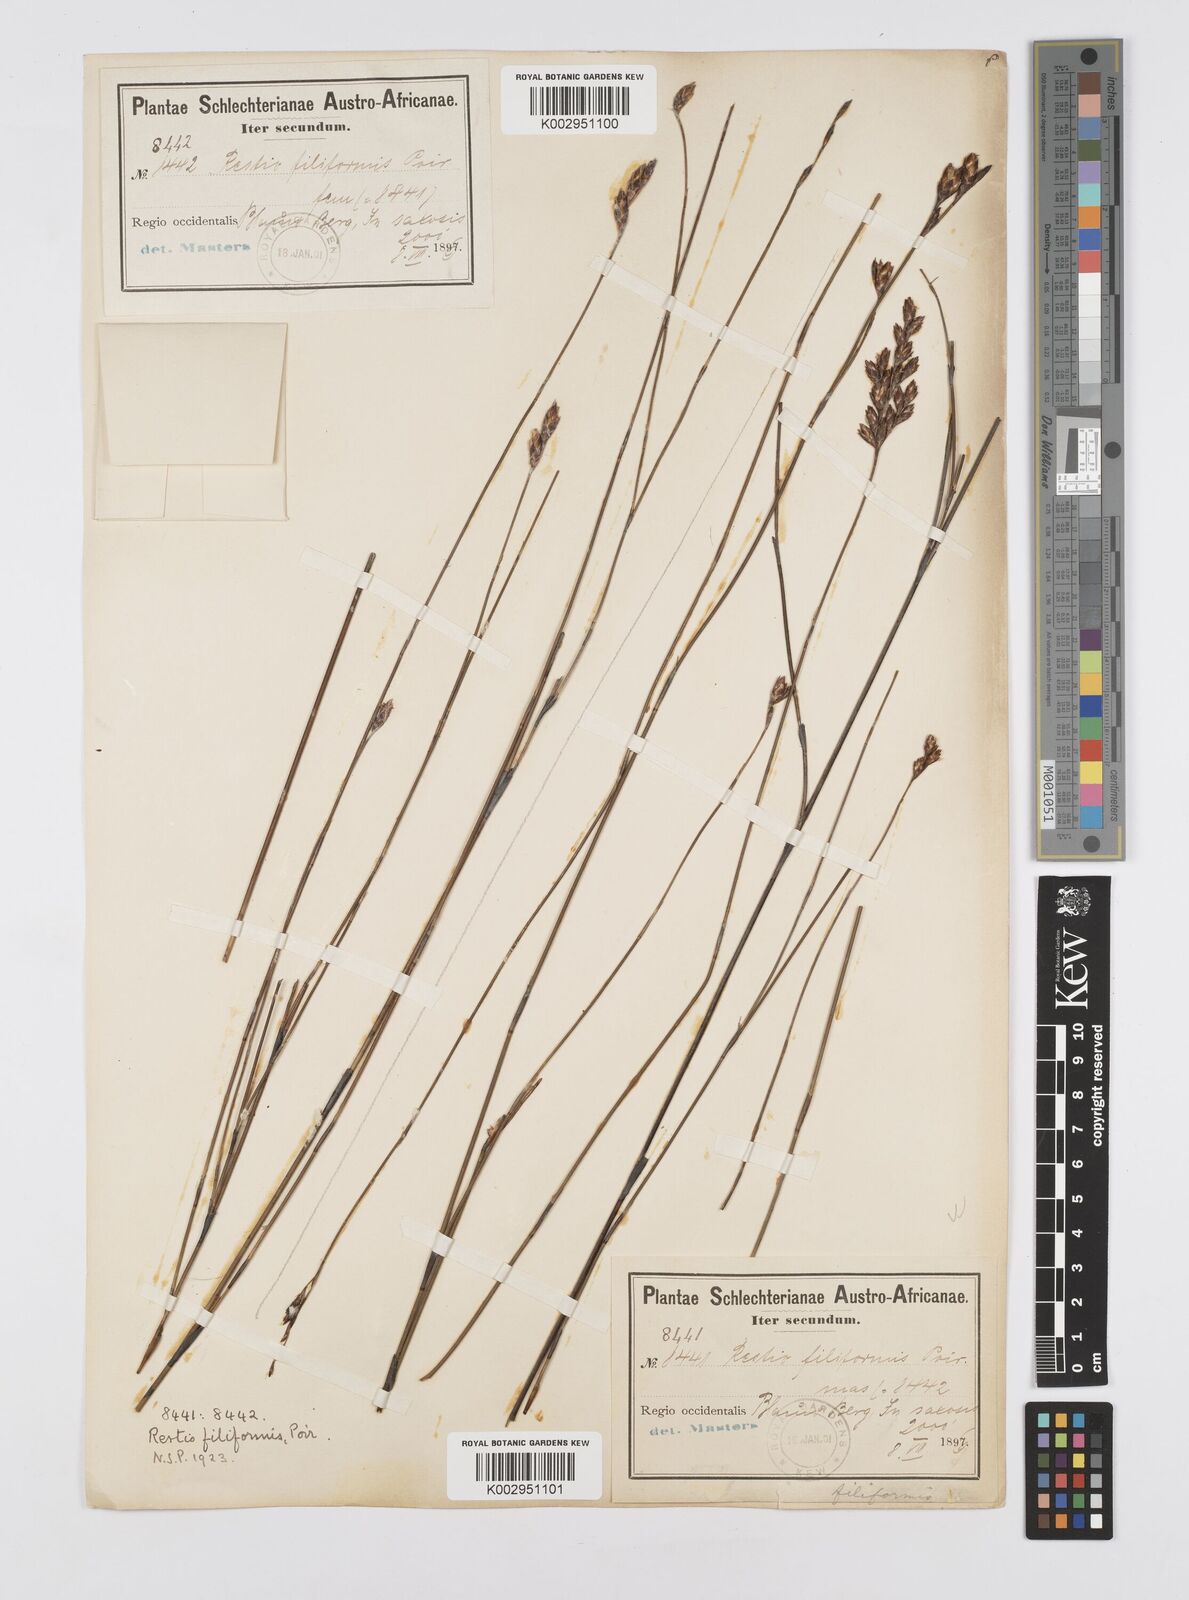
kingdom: Plantae
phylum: Tracheophyta
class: Liliopsida
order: Poales
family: Restionaceae
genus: Restio
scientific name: Restio filiformis
